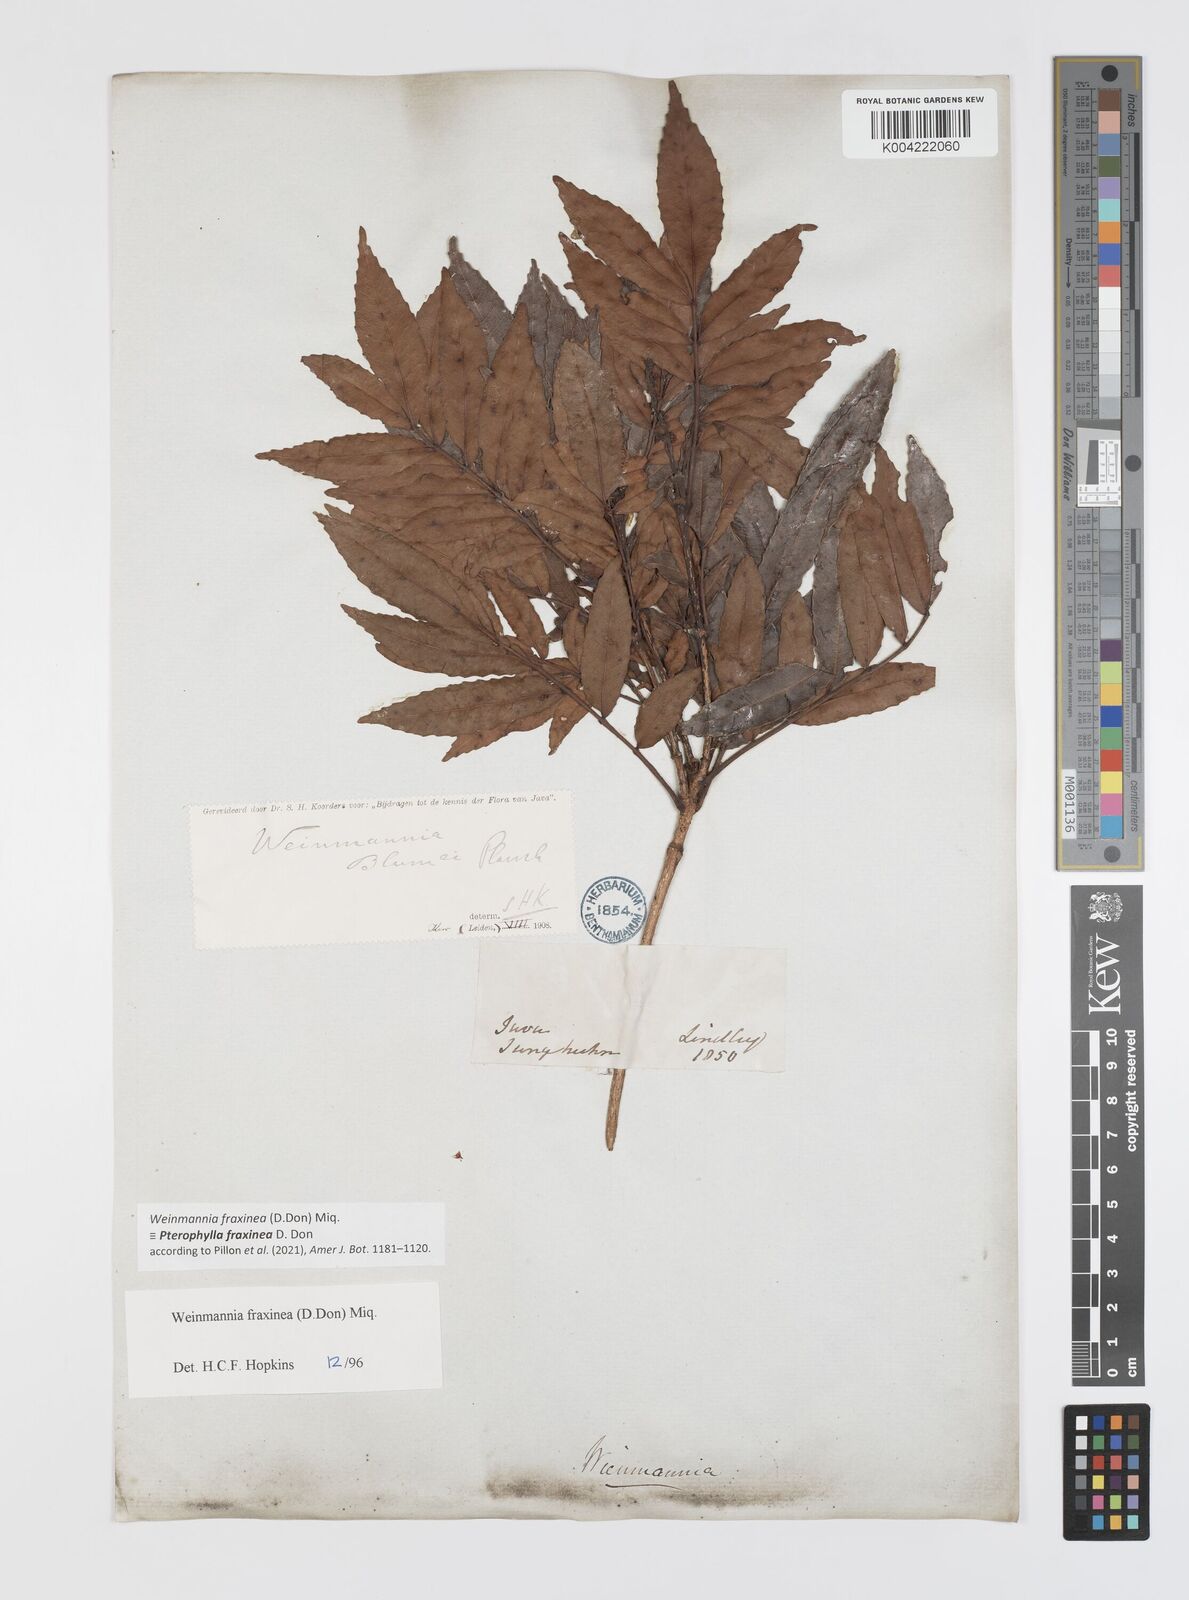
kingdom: Plantae
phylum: Tracheophyta
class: Magnoliopsida
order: Oxalidales
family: Cunoniaceae
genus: Pterophylla
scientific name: Pterophylla fraxinea
